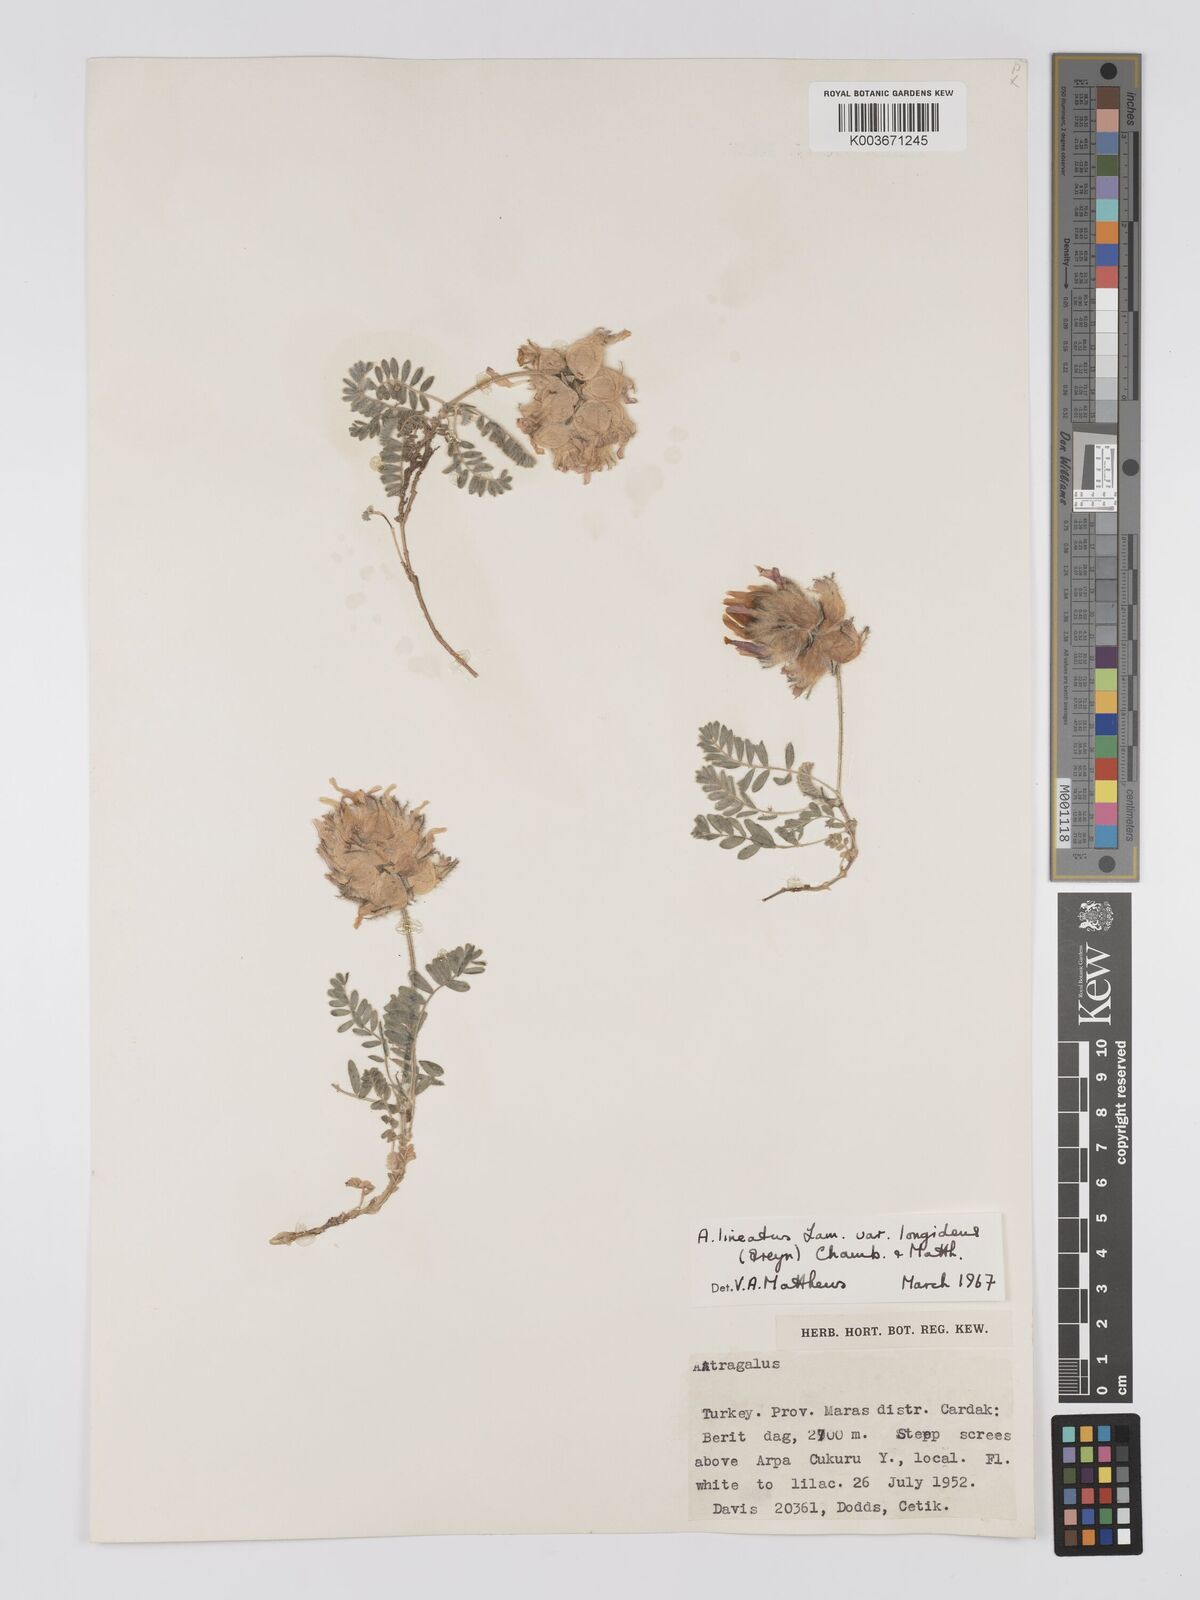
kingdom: Plantae
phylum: Tracheophyta
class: Magnoliopsida
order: Fabales
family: Fabaceae
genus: Astragalus
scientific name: Astragalus lineatus
